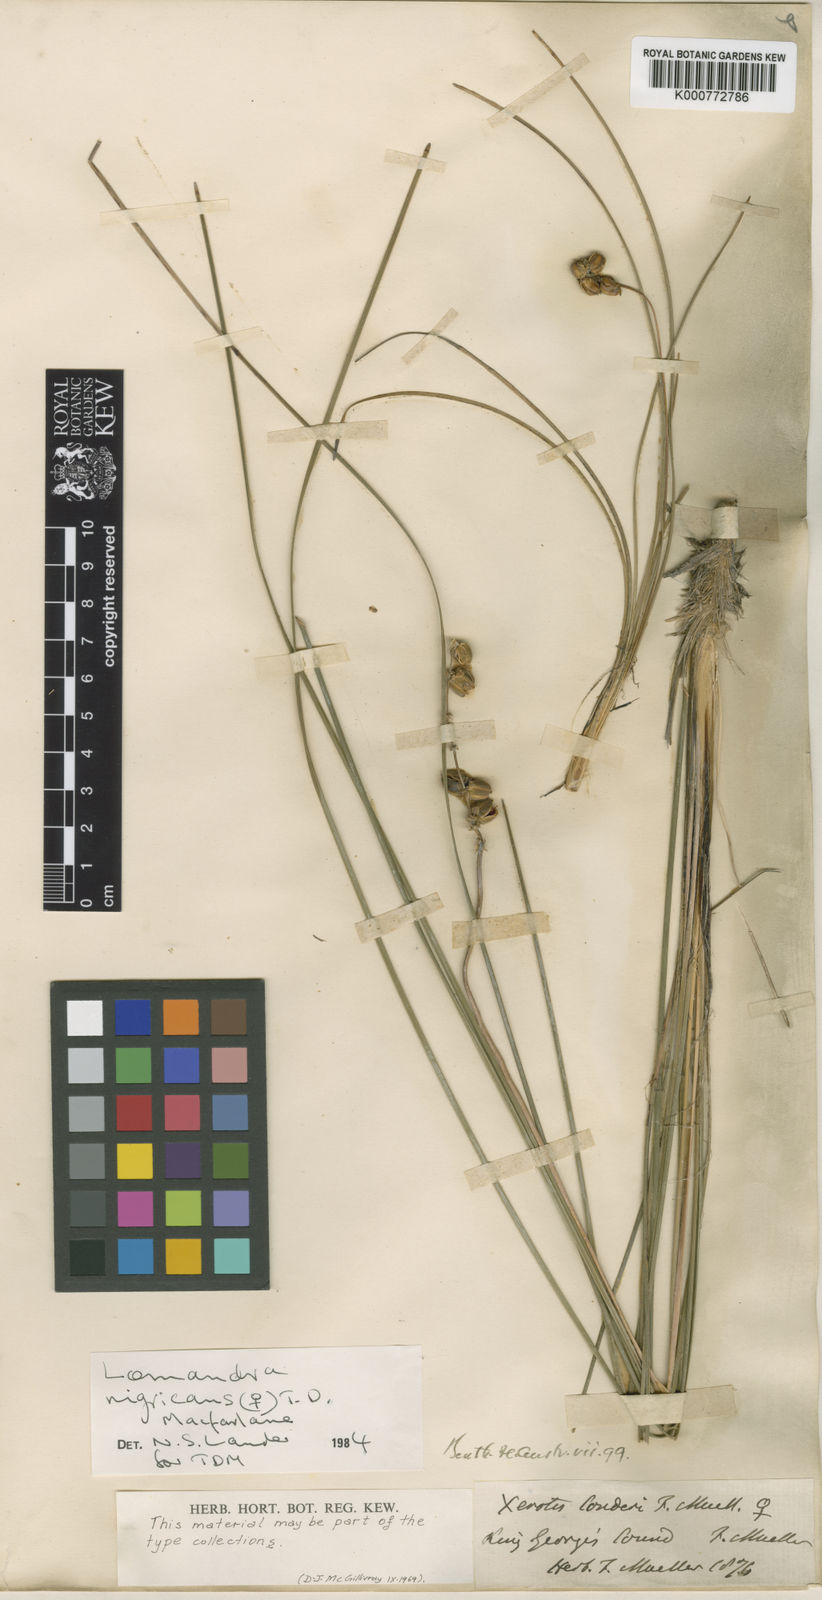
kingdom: Plantae
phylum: Tracheophyta
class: Liliopsida
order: Asparagales
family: Asparagaceae
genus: Lomandra
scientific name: Lomandra sonderi
